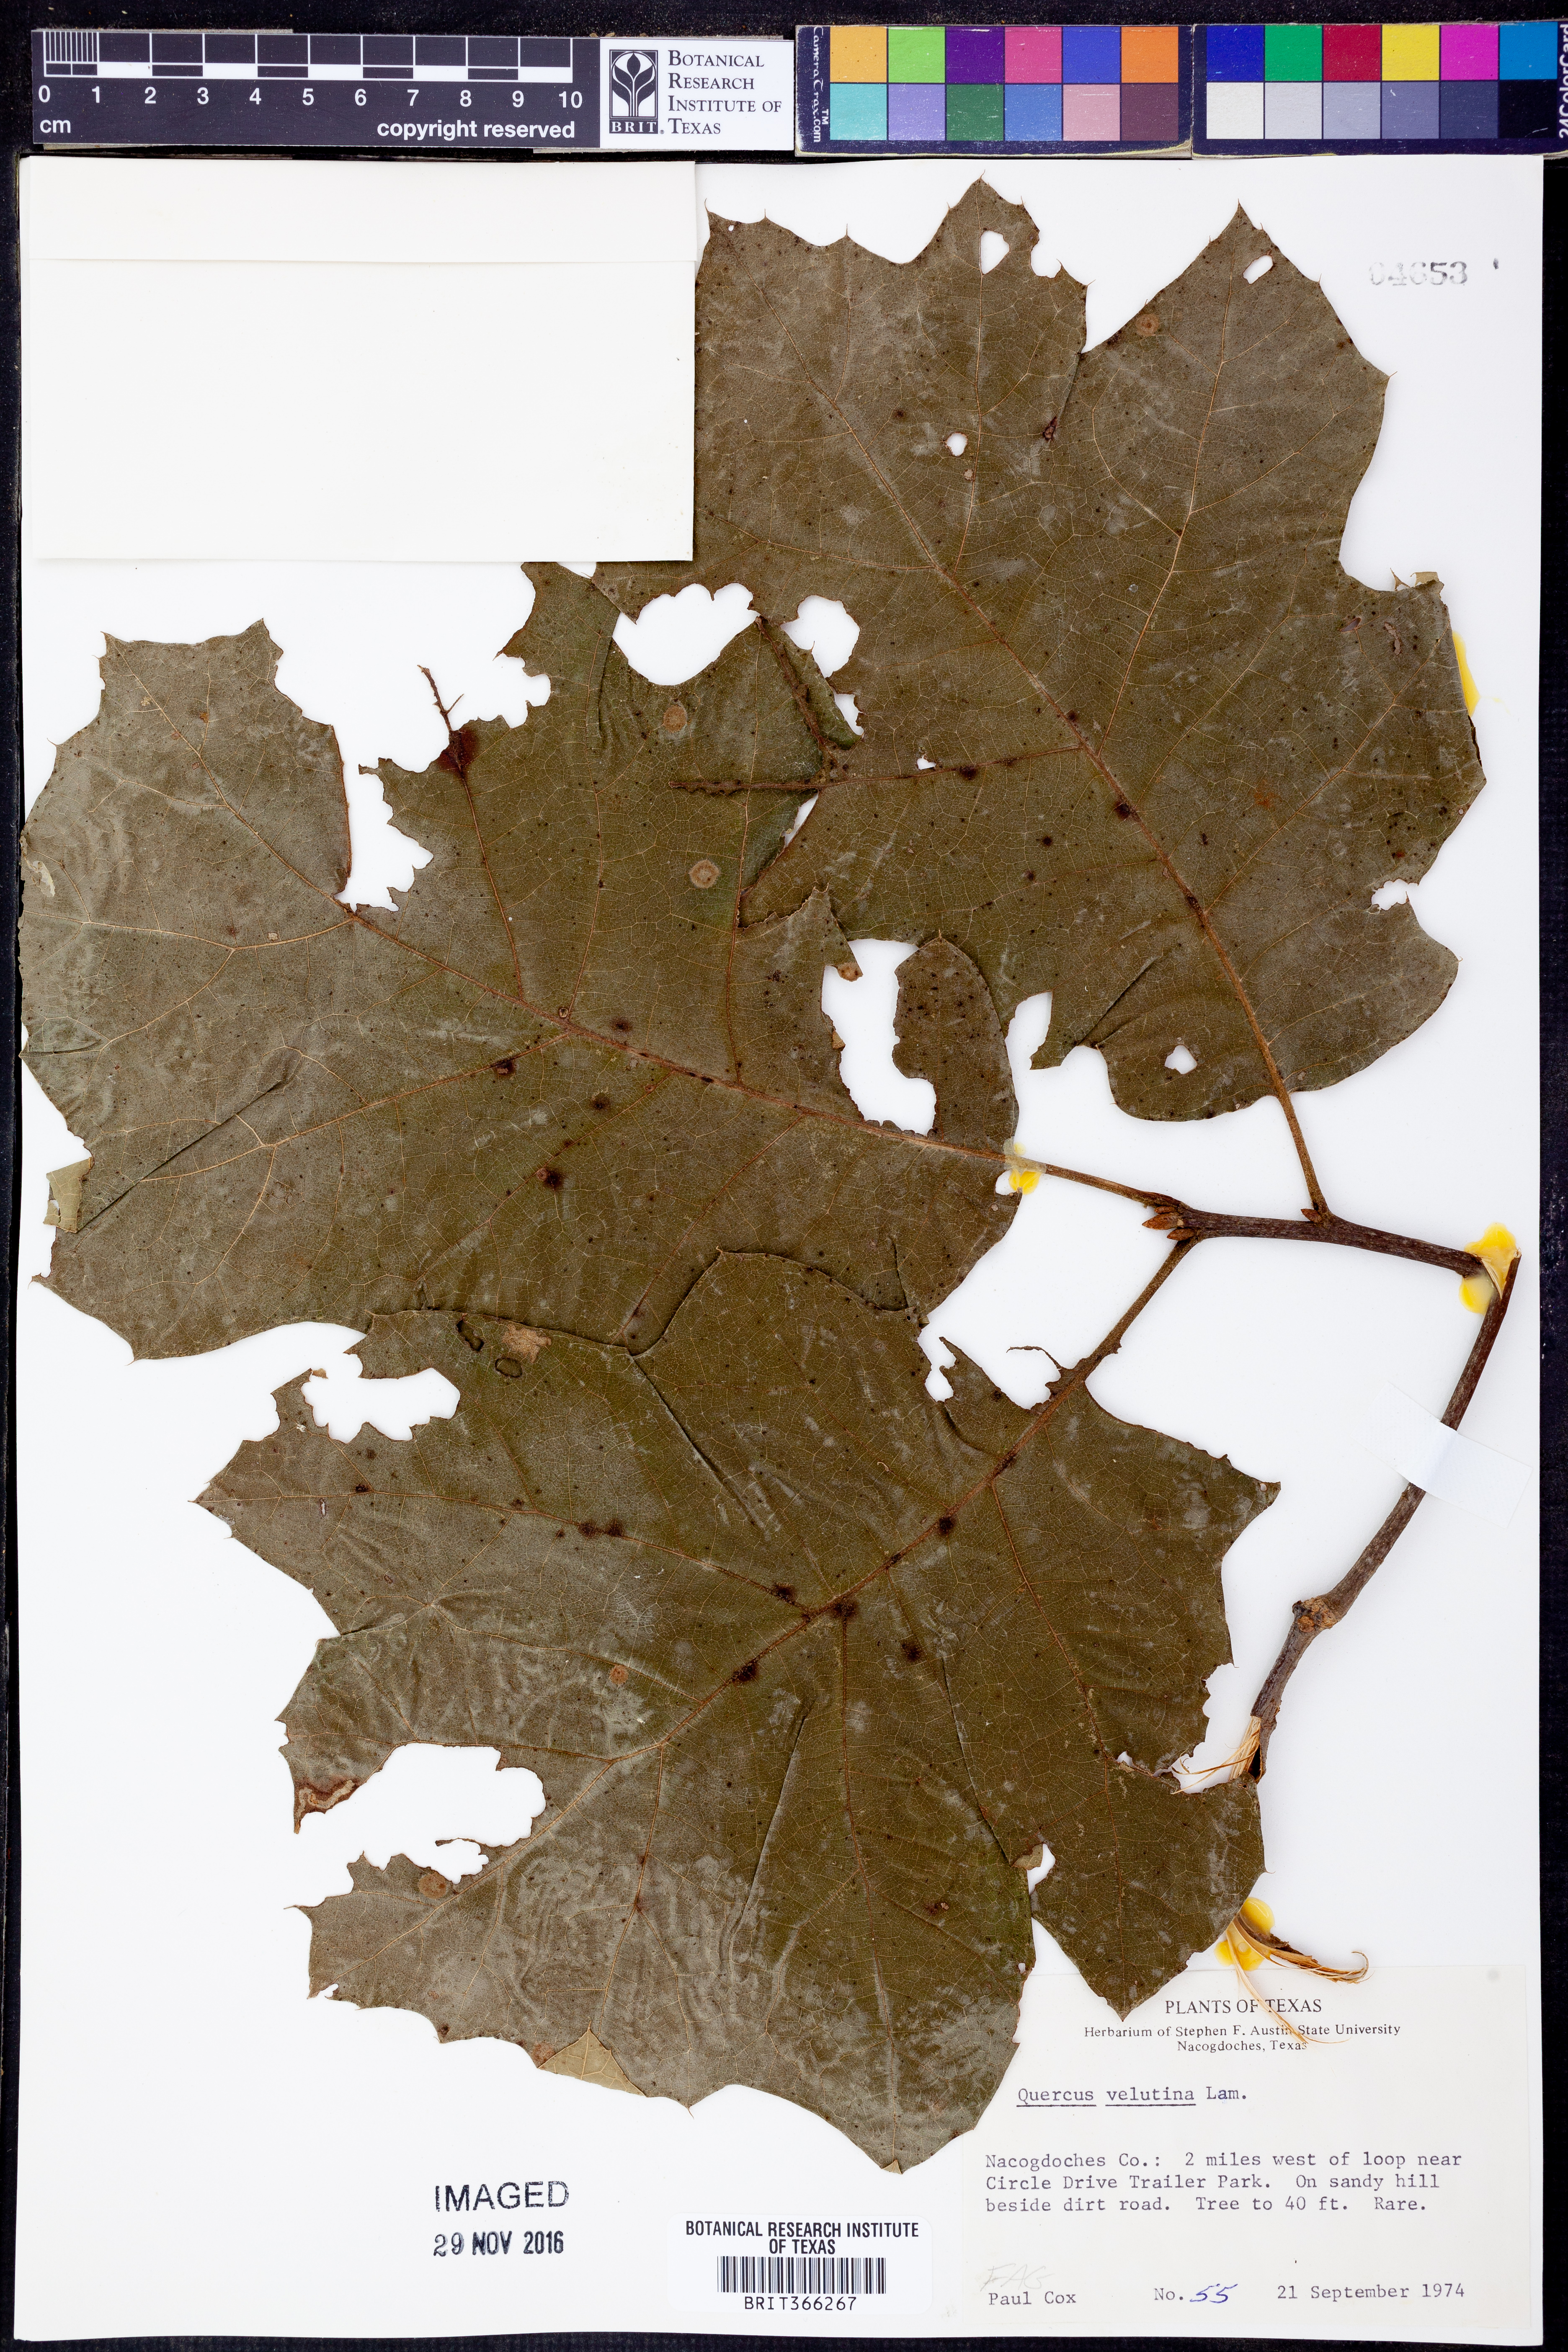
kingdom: Plantae
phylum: Tracheophyta
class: Magnoliopsida
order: Fagales
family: Fagaceae
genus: Quercus
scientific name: Quercus velutina
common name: Black oak
